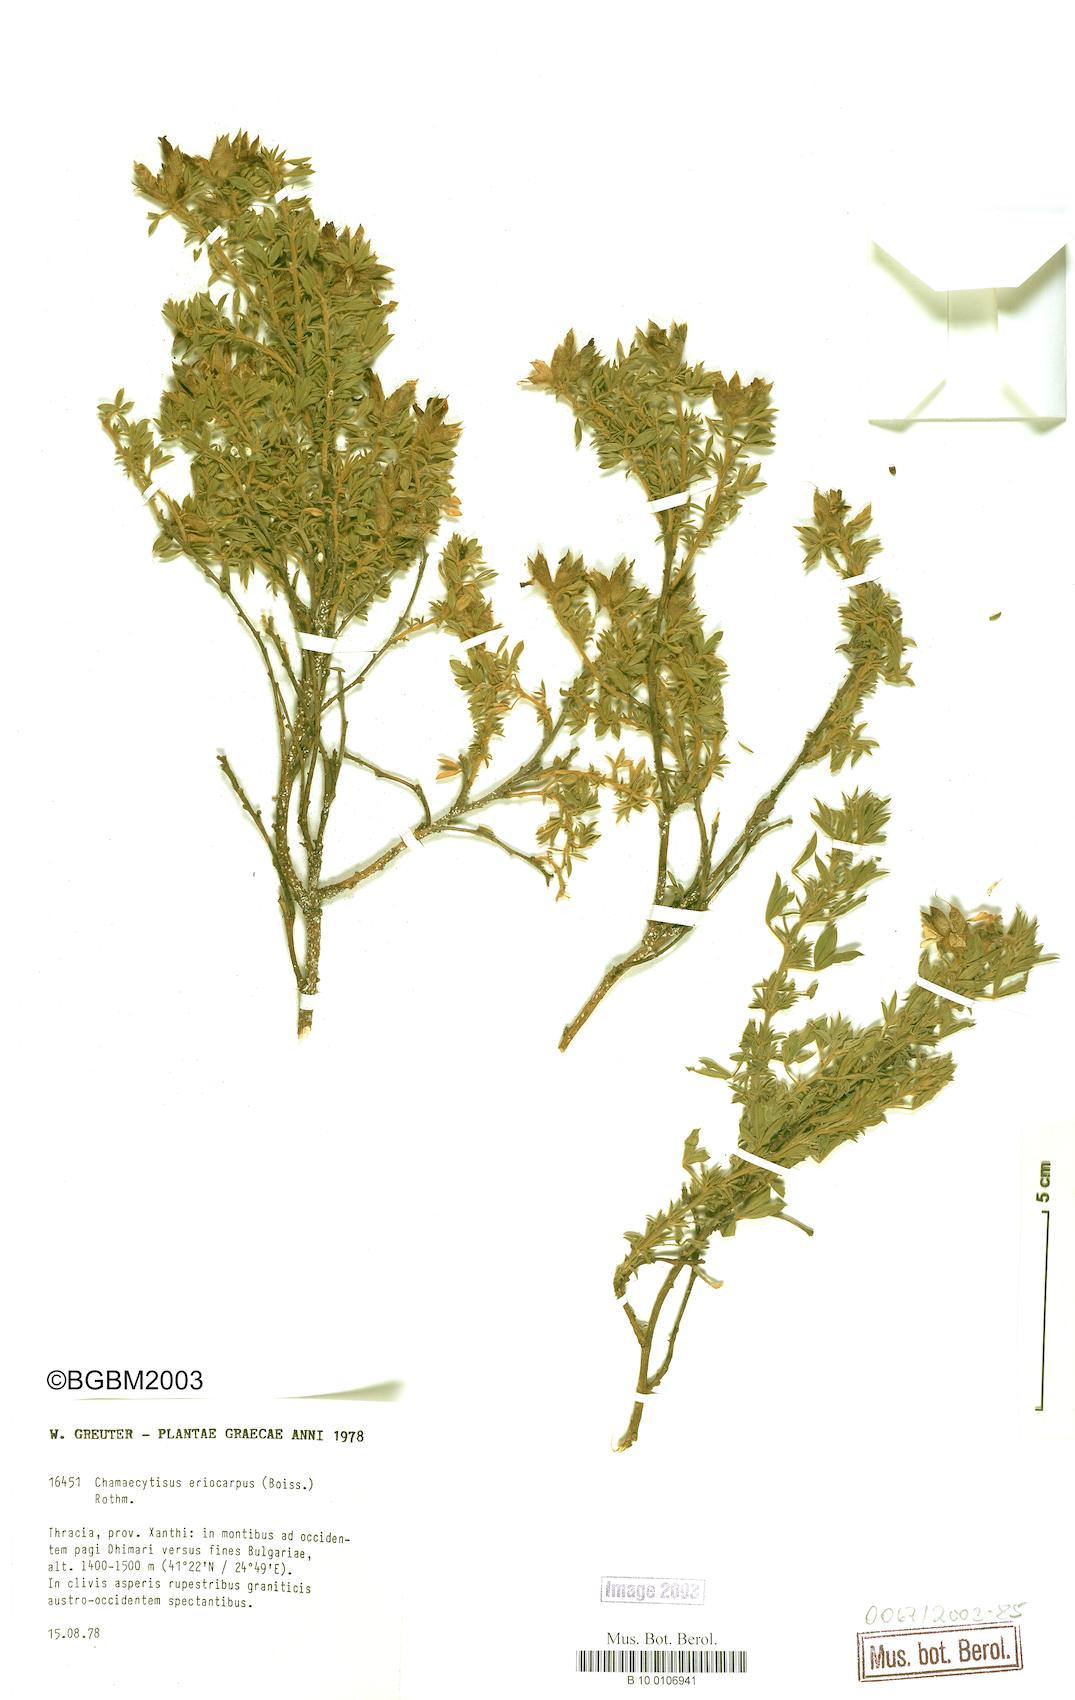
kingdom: Plantae
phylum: Tracheophyta
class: Magnoliopsida
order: Fabales
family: Fabaceae
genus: Chamaecytisus
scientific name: Chamaecytisus eriocarpus
